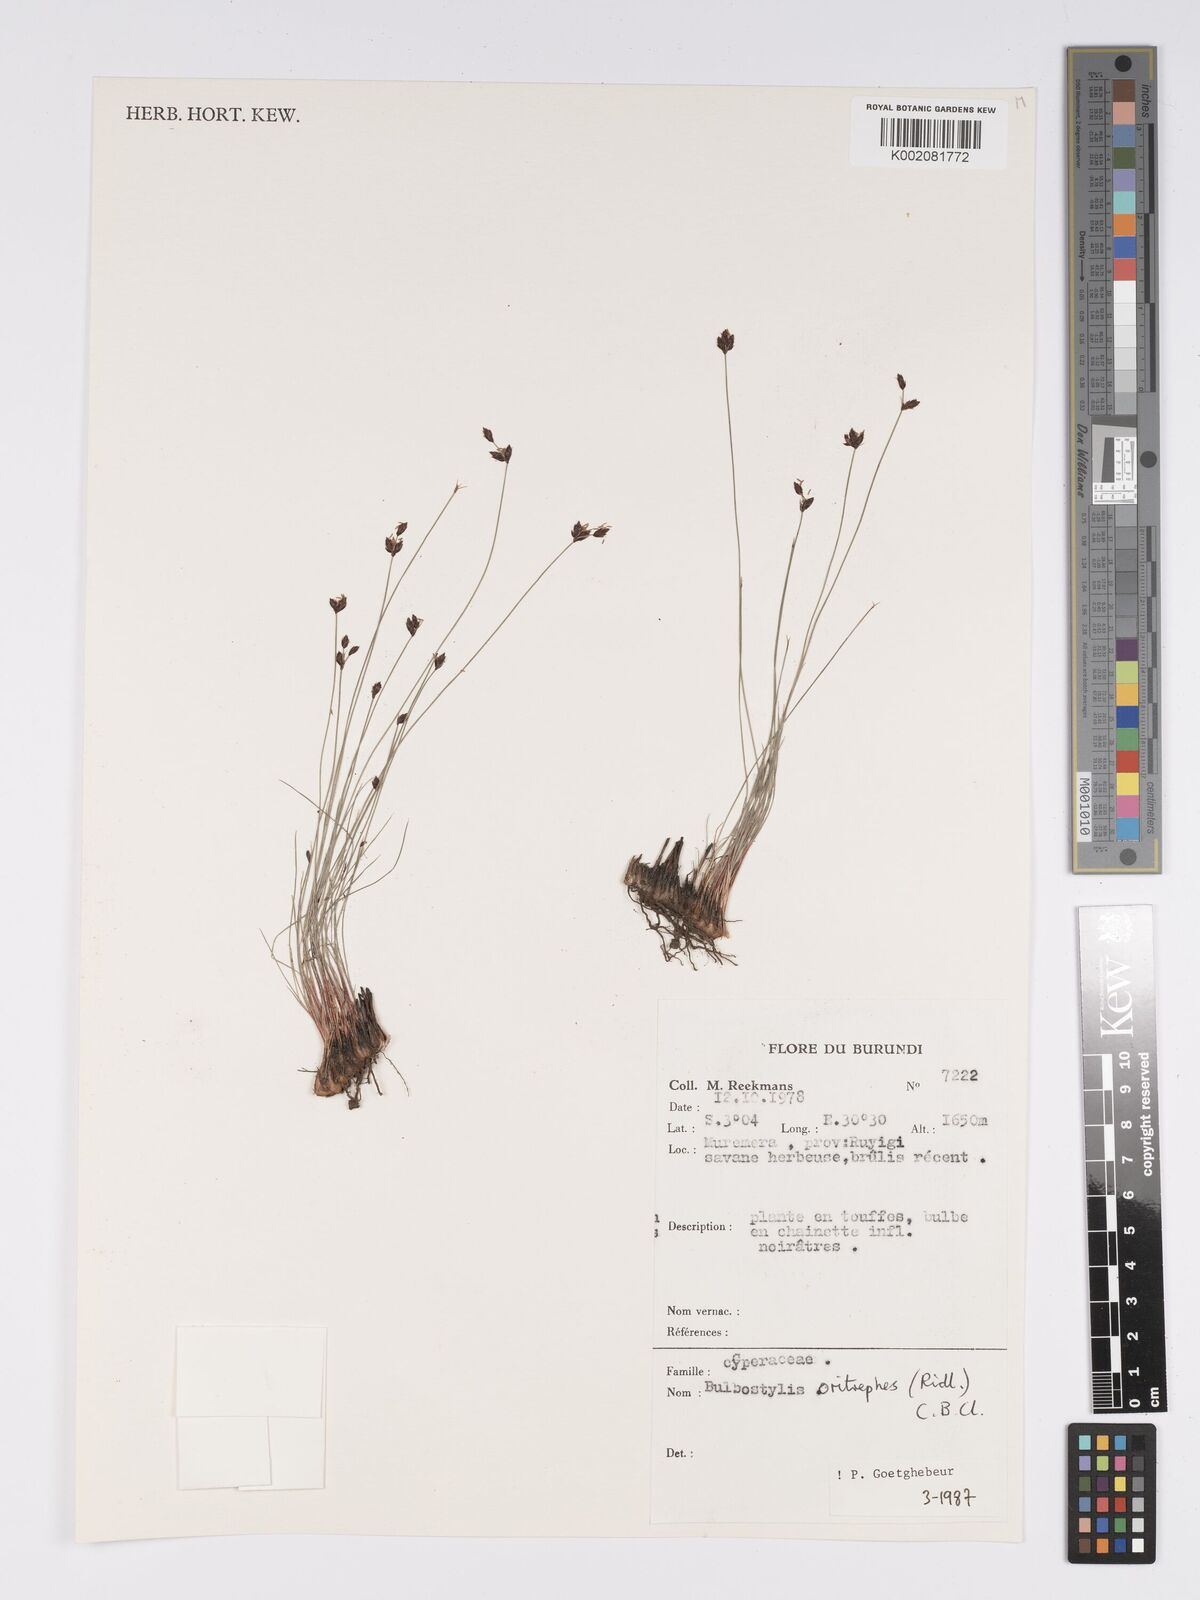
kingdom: Plantae
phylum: Tracheophyta
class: Liliopsida
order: Poales
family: Cyperaceae
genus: Bulbostylis
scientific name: Bulbostylis oritrephes
